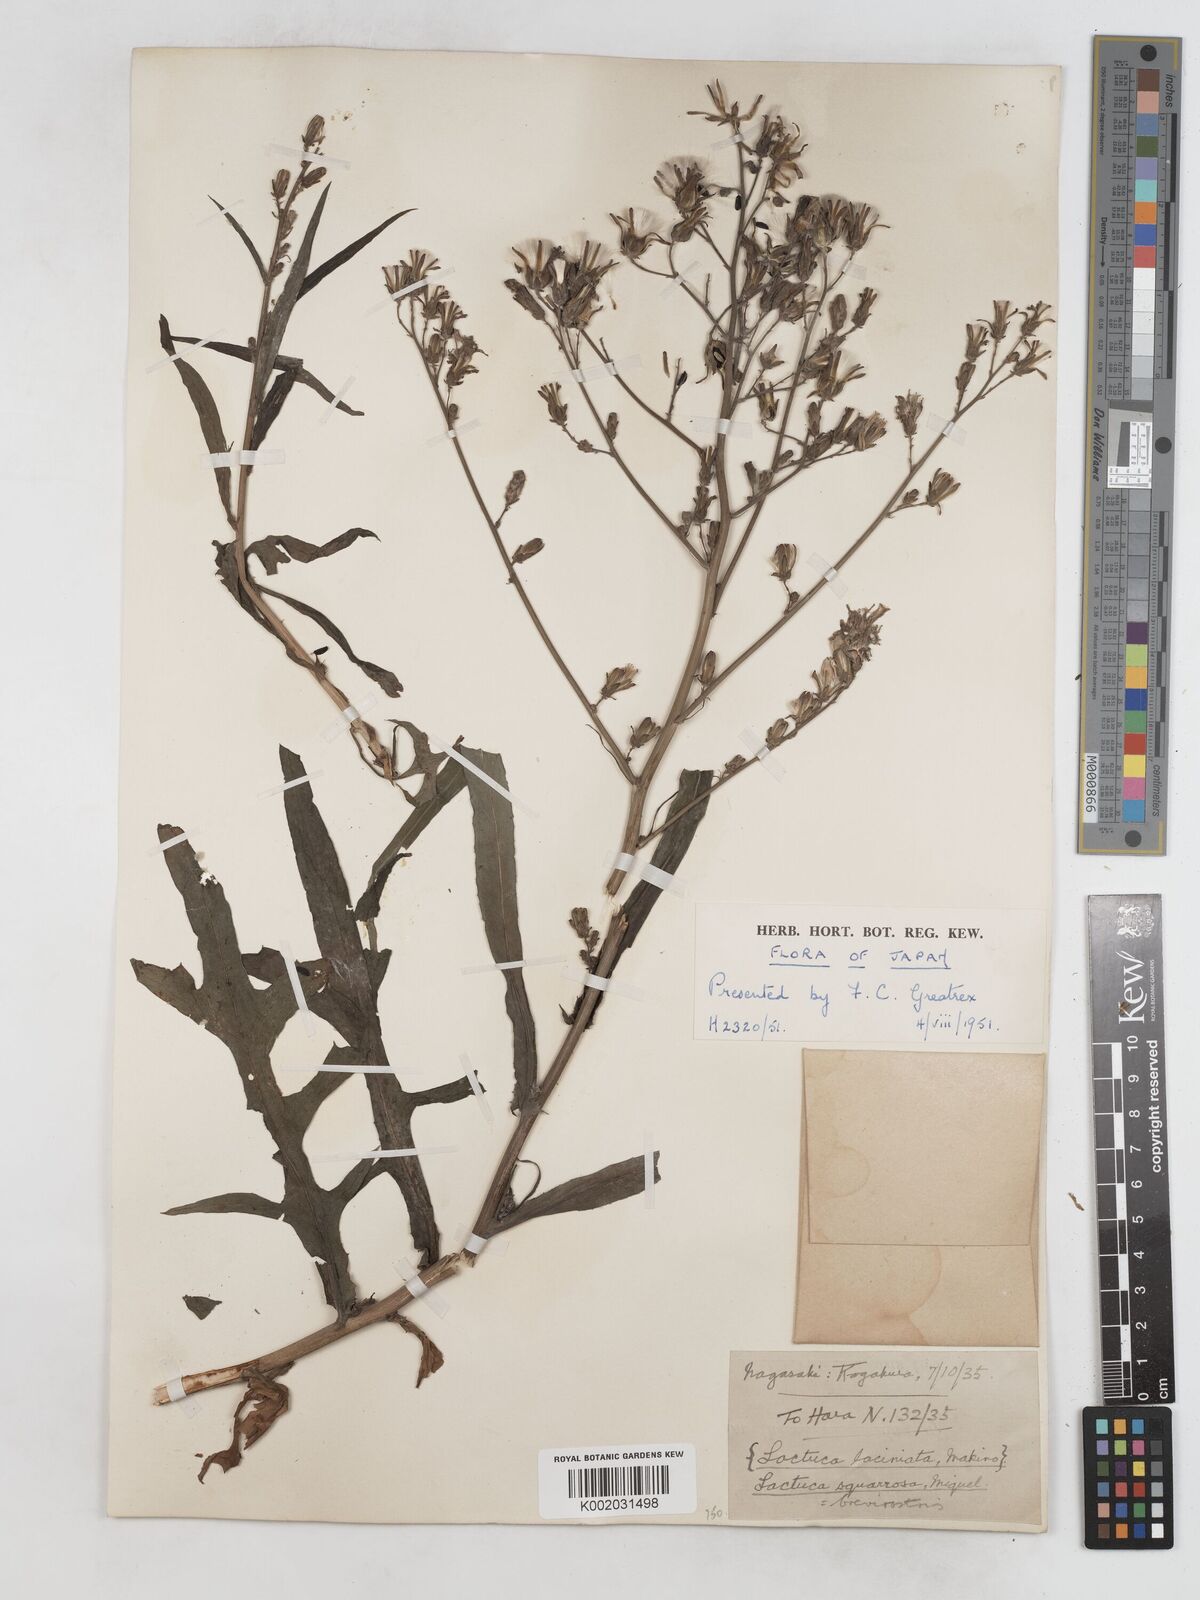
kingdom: Plantae
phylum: Tracheophyta
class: Magnoliopsida
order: Asterales
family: Asteraceae
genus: Lactuca
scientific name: Lactuca indica
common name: Wild lettuce
